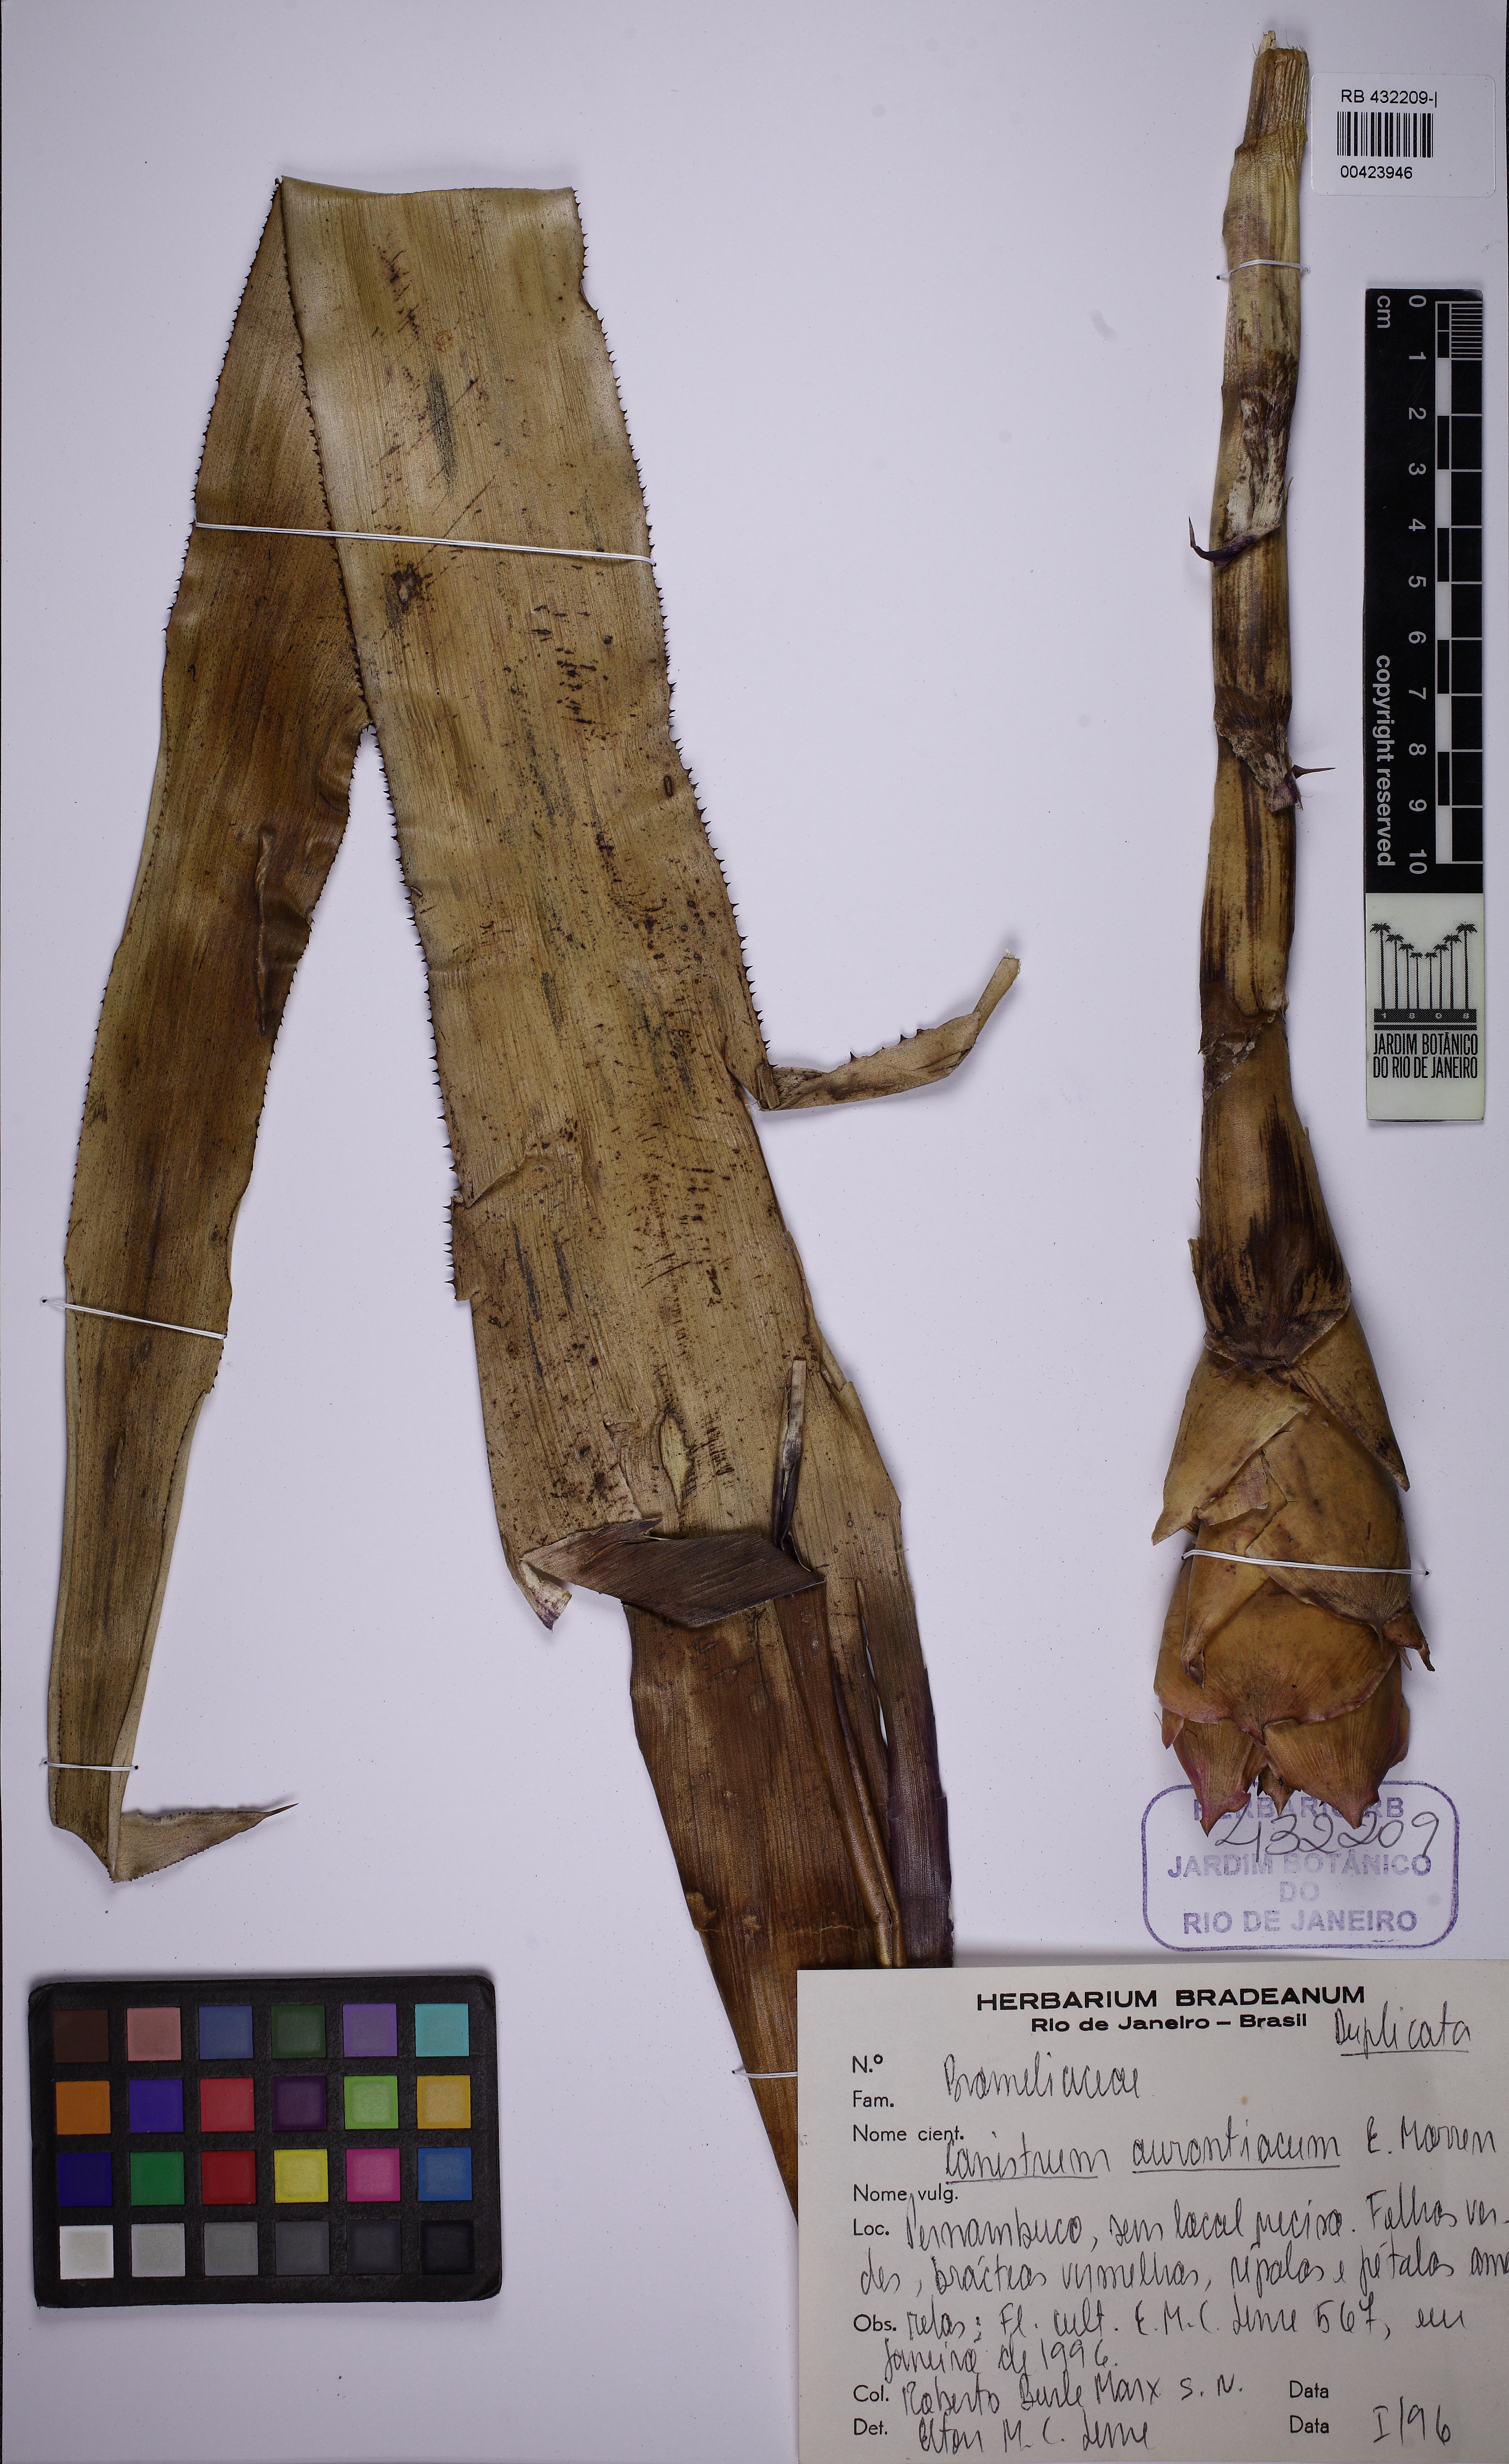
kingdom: Plantae
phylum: Tracheophyta
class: Liliopsida
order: Poales
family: Bromeliaceae
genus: Canistrum
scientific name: Canistrum aurantiacum
